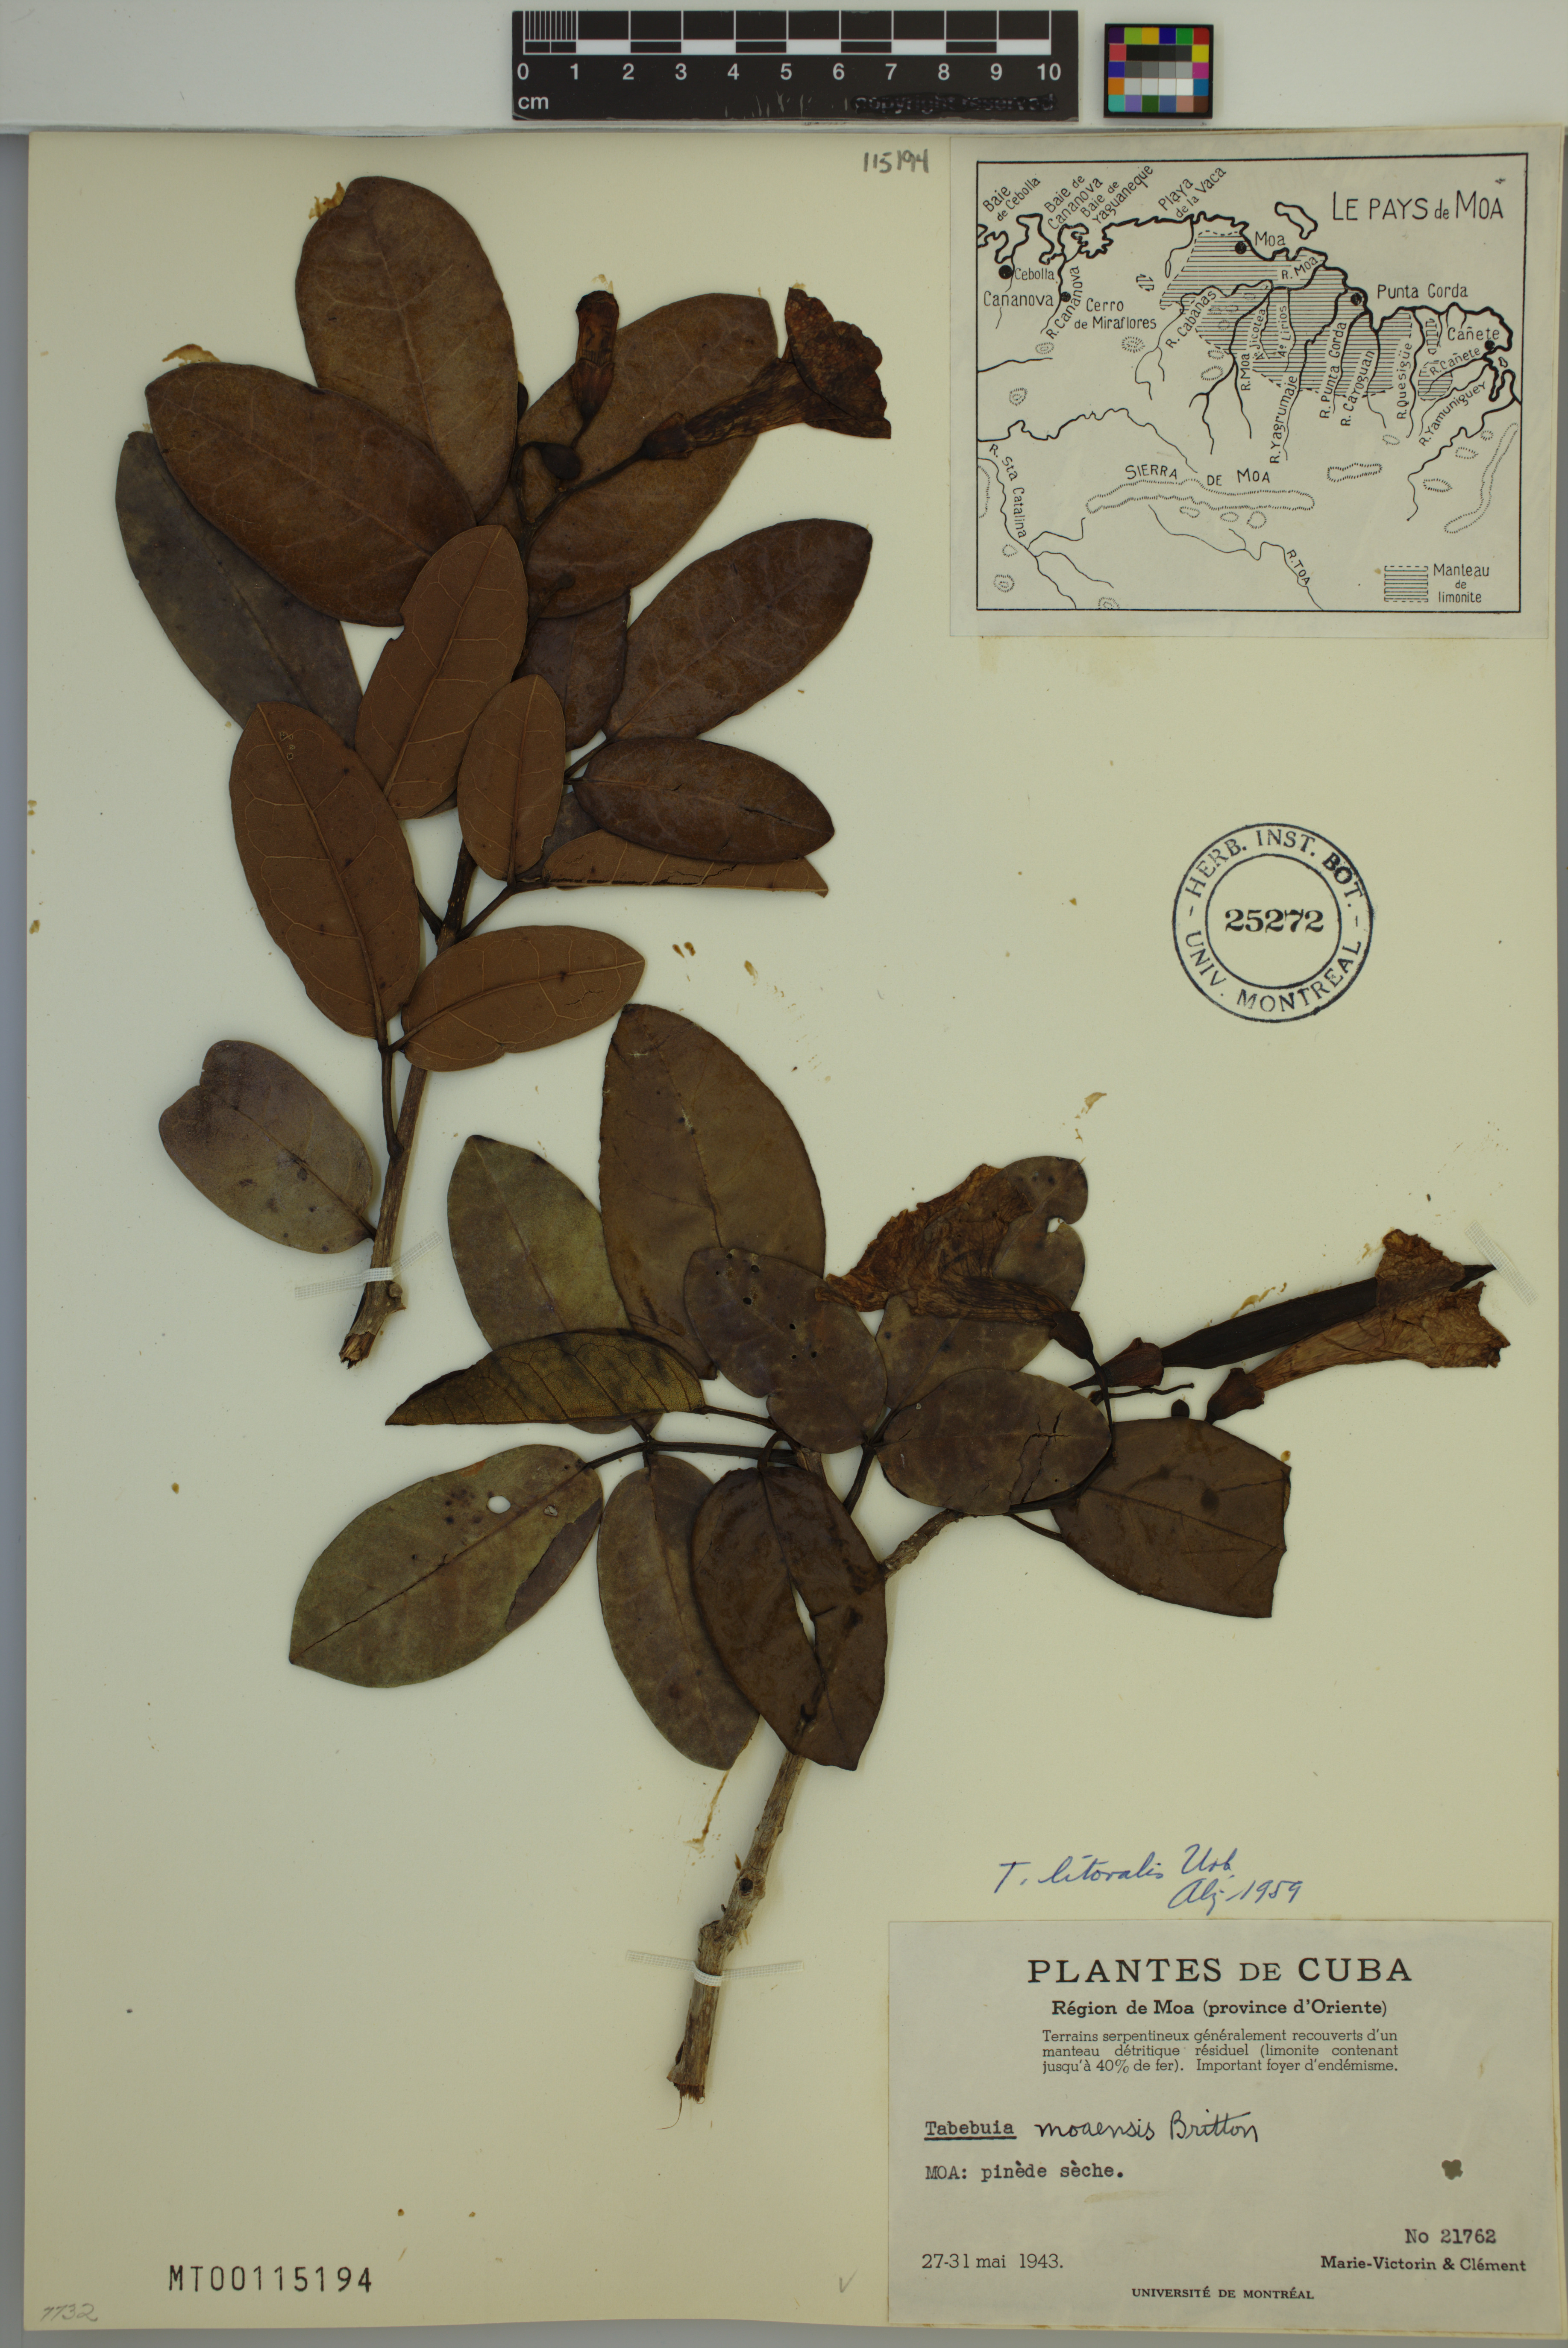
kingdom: Plantae
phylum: Tracheophyta
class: Magnoliopsida
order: Lamiales
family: Bignoniaceae
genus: Tabebuia
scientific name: Tabebuia moaensis
